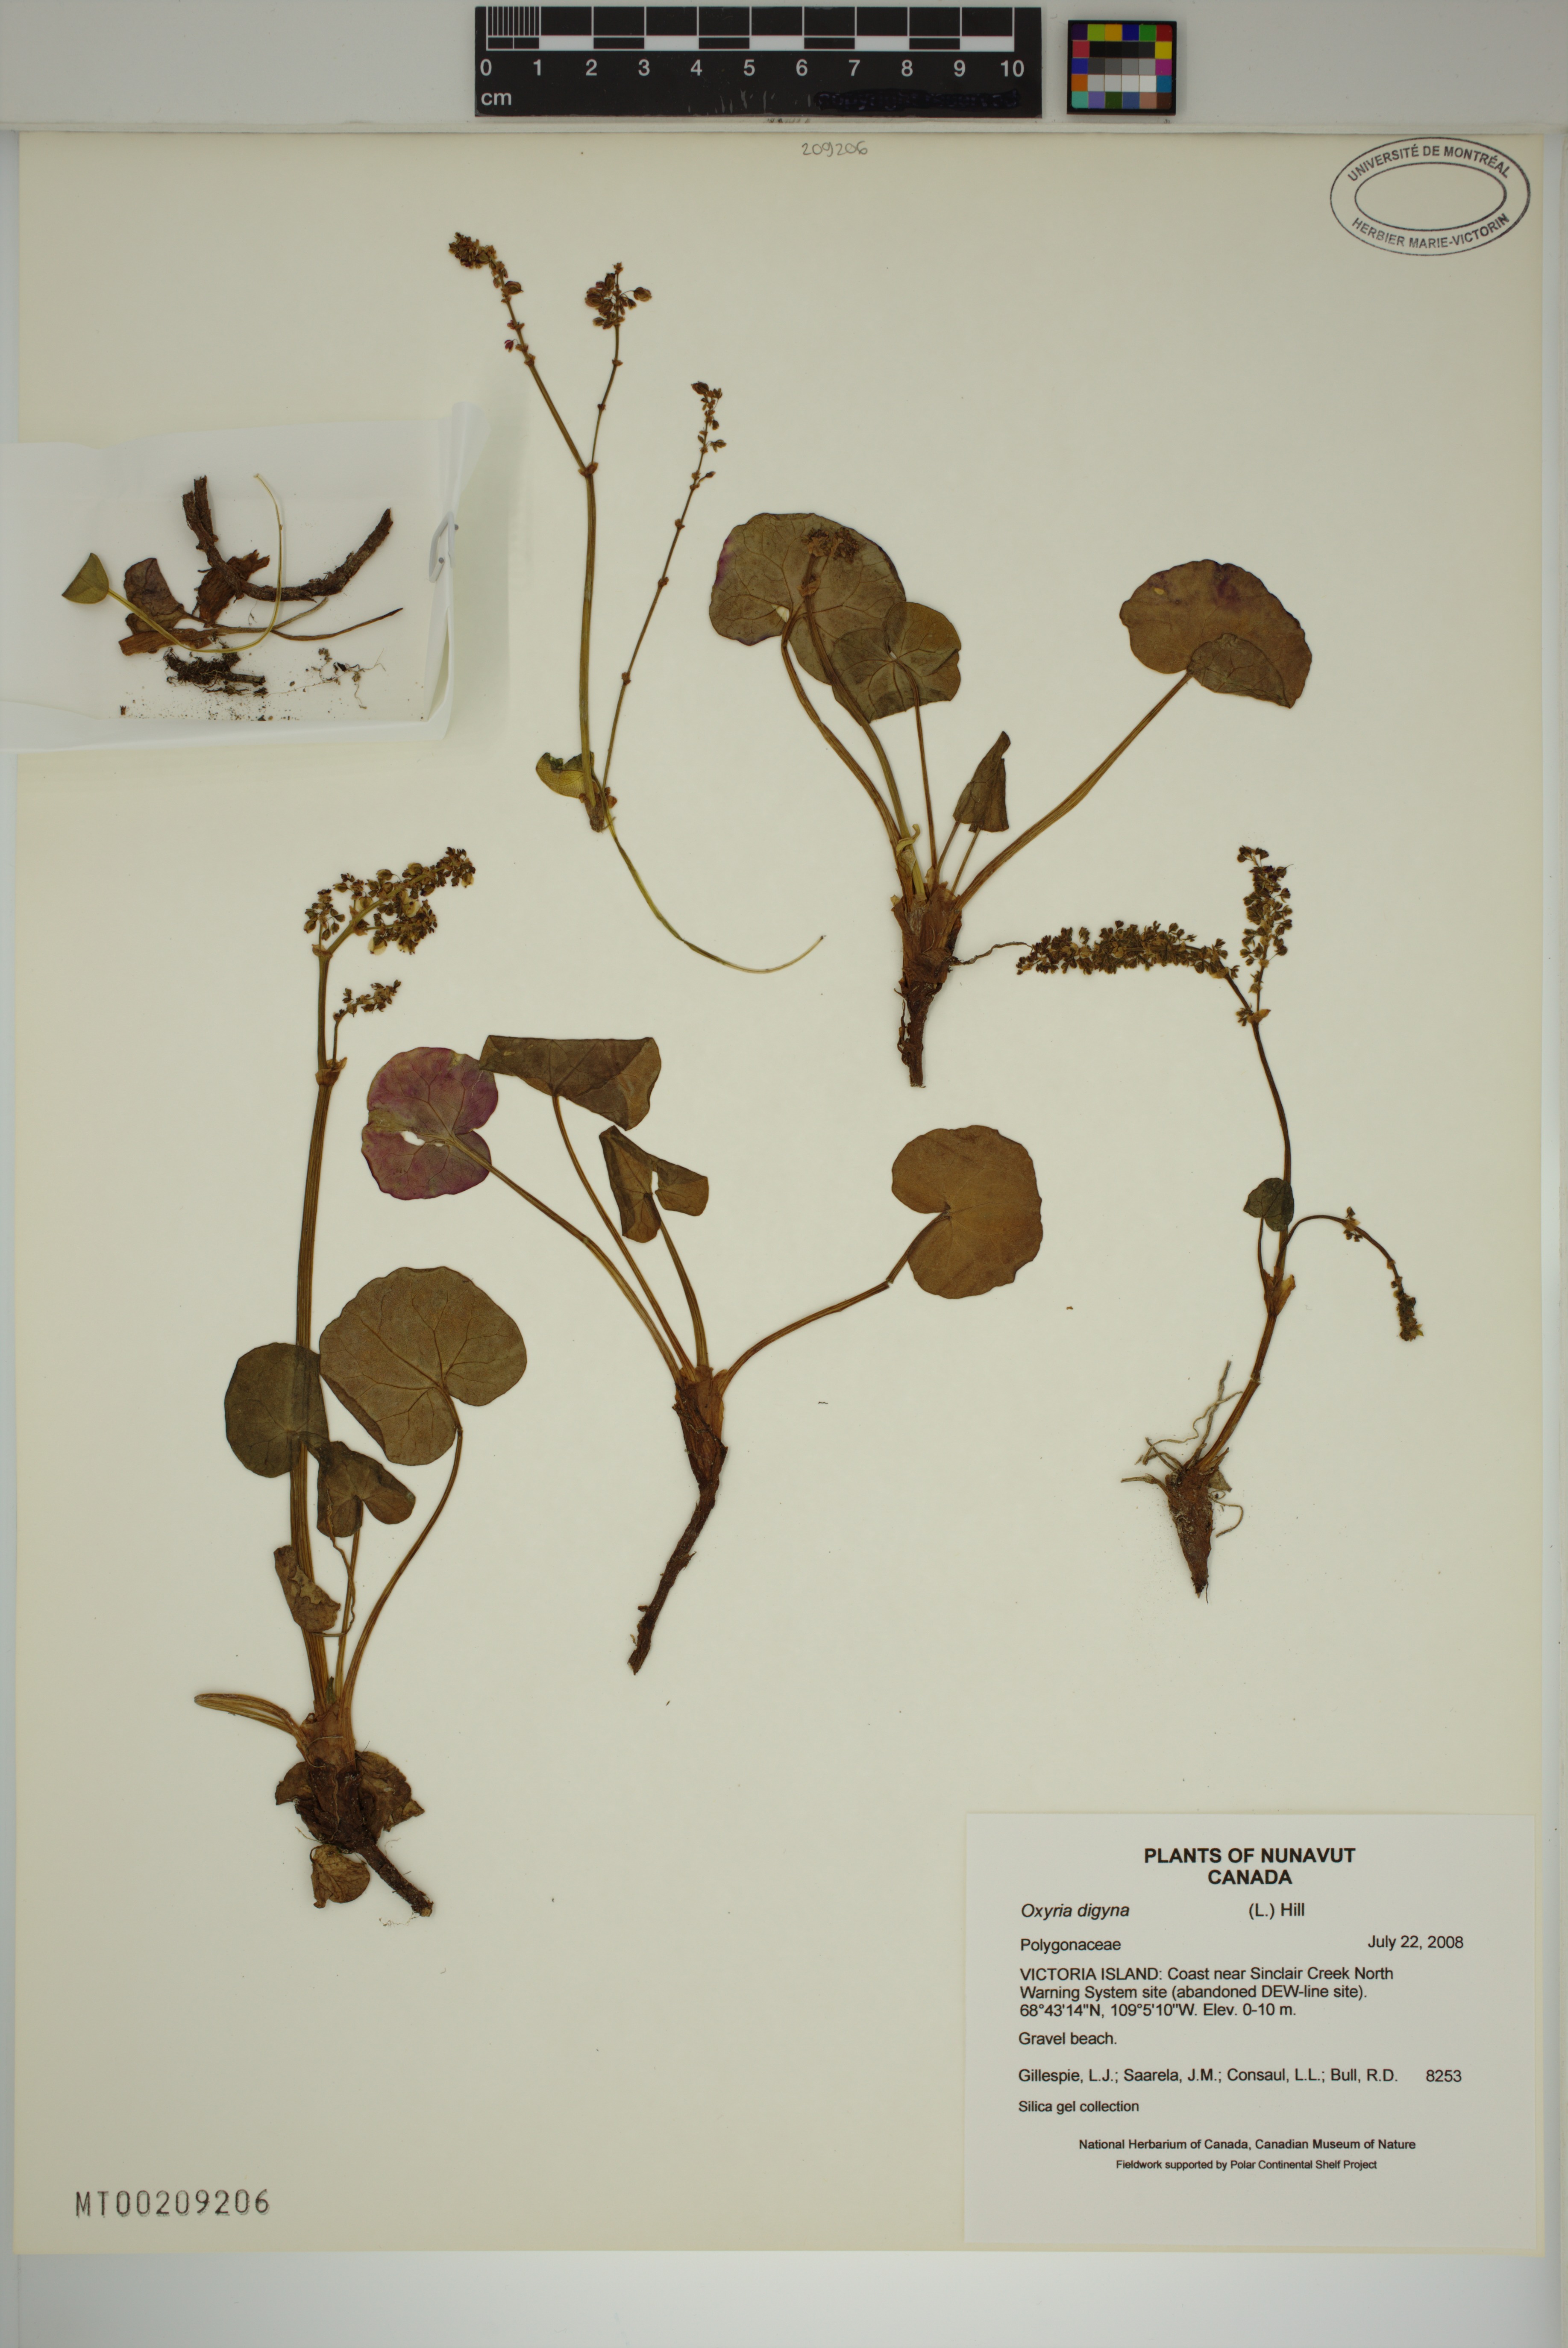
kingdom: Plantae
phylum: Tracheophyta
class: Magnoliopsida
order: Caryophyllales
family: Polygonaceae
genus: Oxyria
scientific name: Oxyria digyna
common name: Alpine mountain-sorrel
